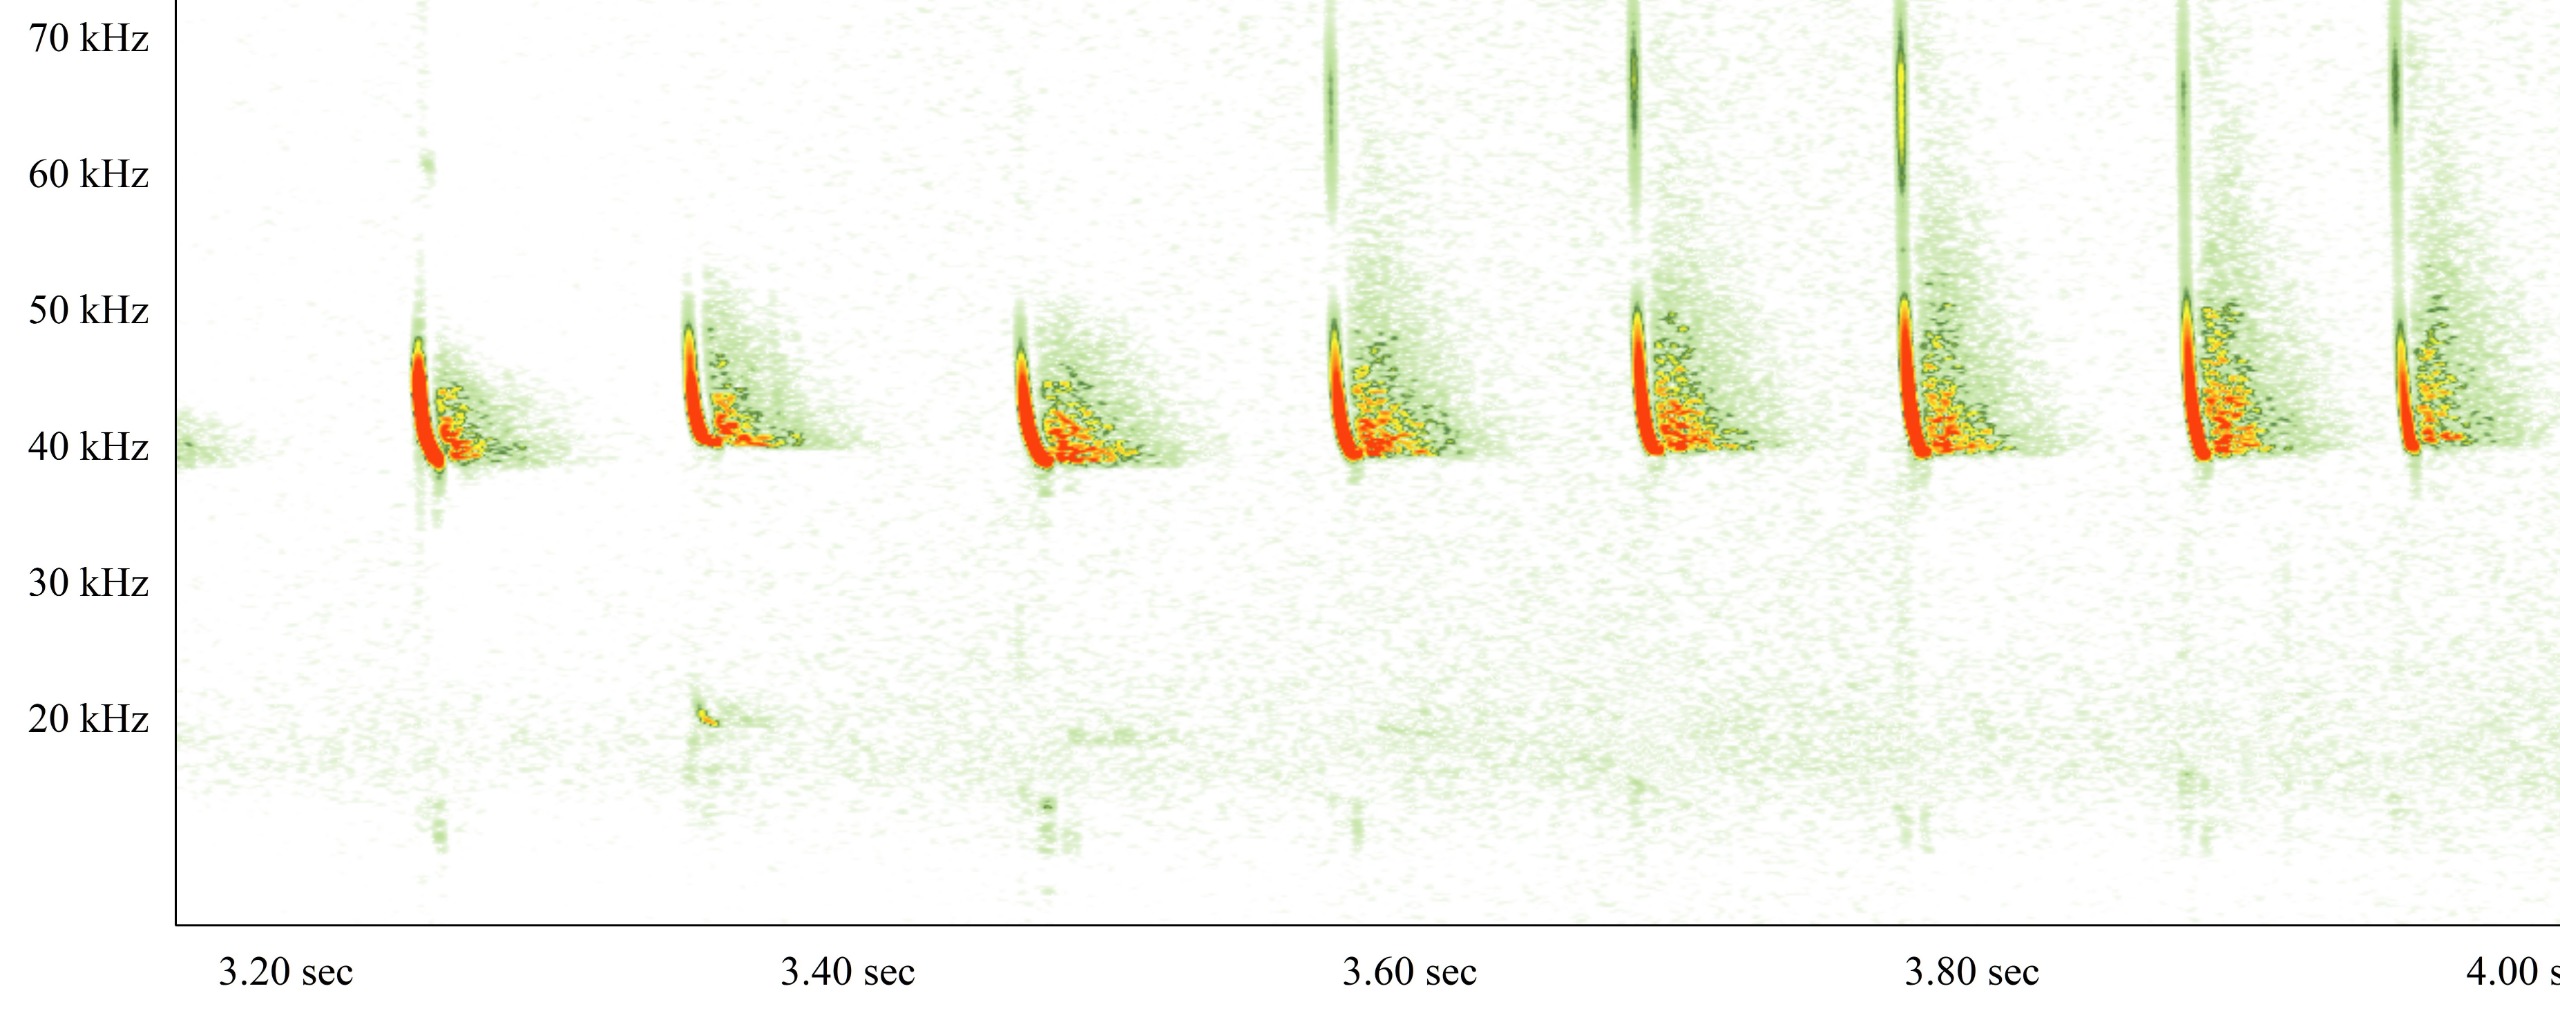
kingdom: Animalia
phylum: Chordata
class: Mammalia
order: Chiroptera
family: Vespertilionidae
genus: Pipistrellus
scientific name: Pipistrellus nathusii
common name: Troldflagermus
